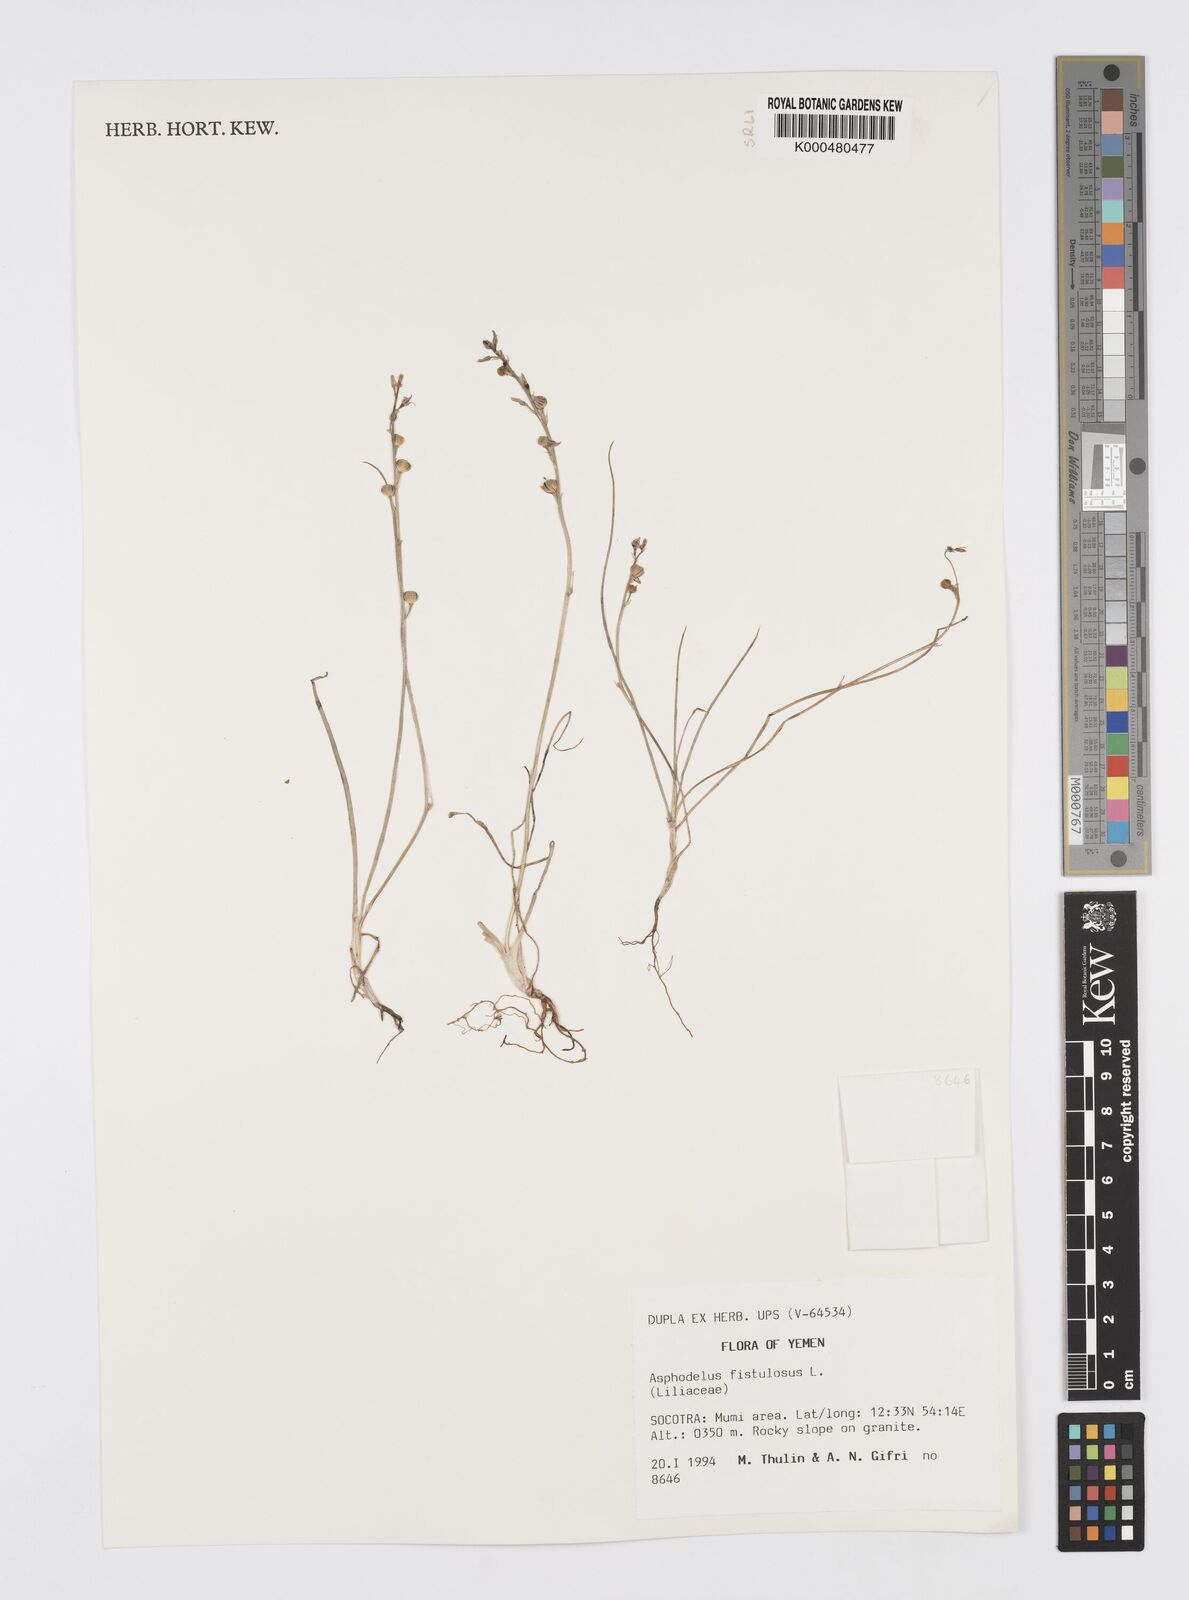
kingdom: Plantae
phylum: Tracheophyta
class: Liliopsida
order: Asparagales
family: Asphodelaceae
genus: Asphodelus
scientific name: Asphodelus fistulosus
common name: Onionweed
